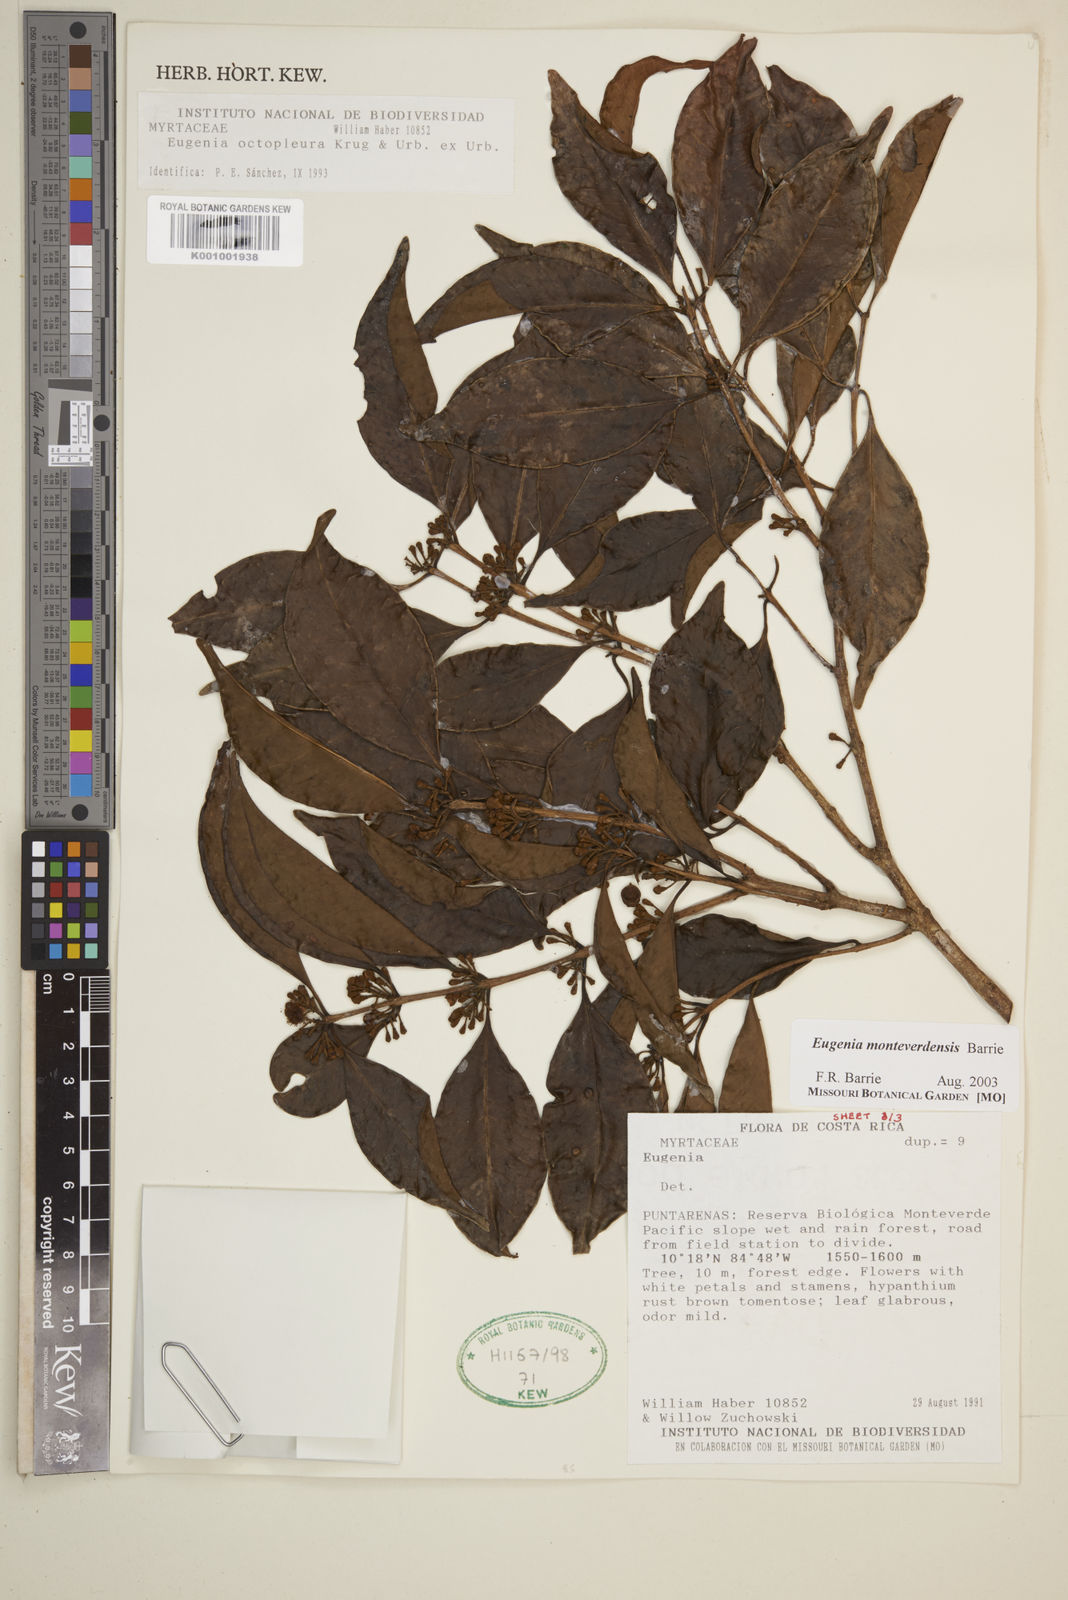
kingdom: Plantae
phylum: Tracheophyta
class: Magnoliopsida
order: Myrtales
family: Myrtaceae
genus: Eugenia
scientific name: Eugenia monteverdensis
